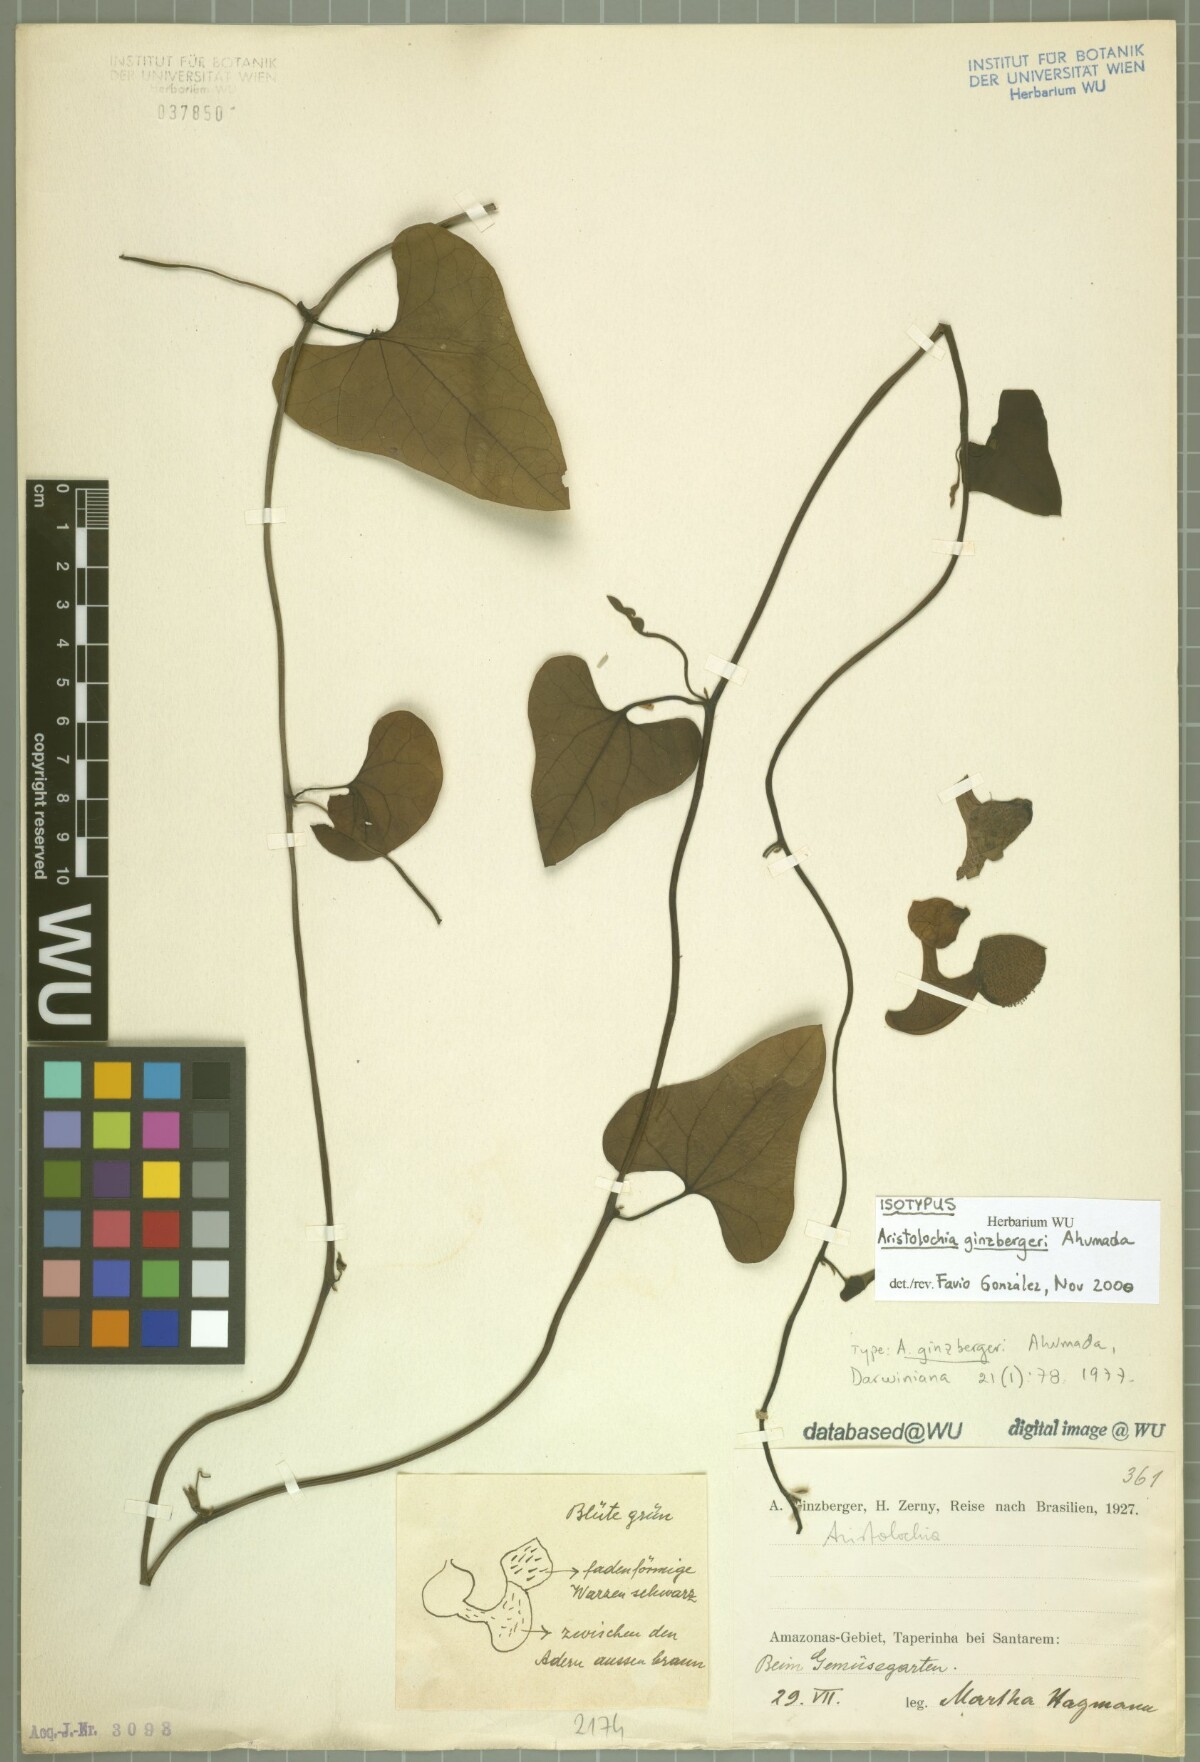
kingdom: Plantae
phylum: Tracheophyta
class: Magnoliopsida
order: Piperales
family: Aristolochiaceae
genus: Aristolochia
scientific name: Aristolochia ginzbergeri
